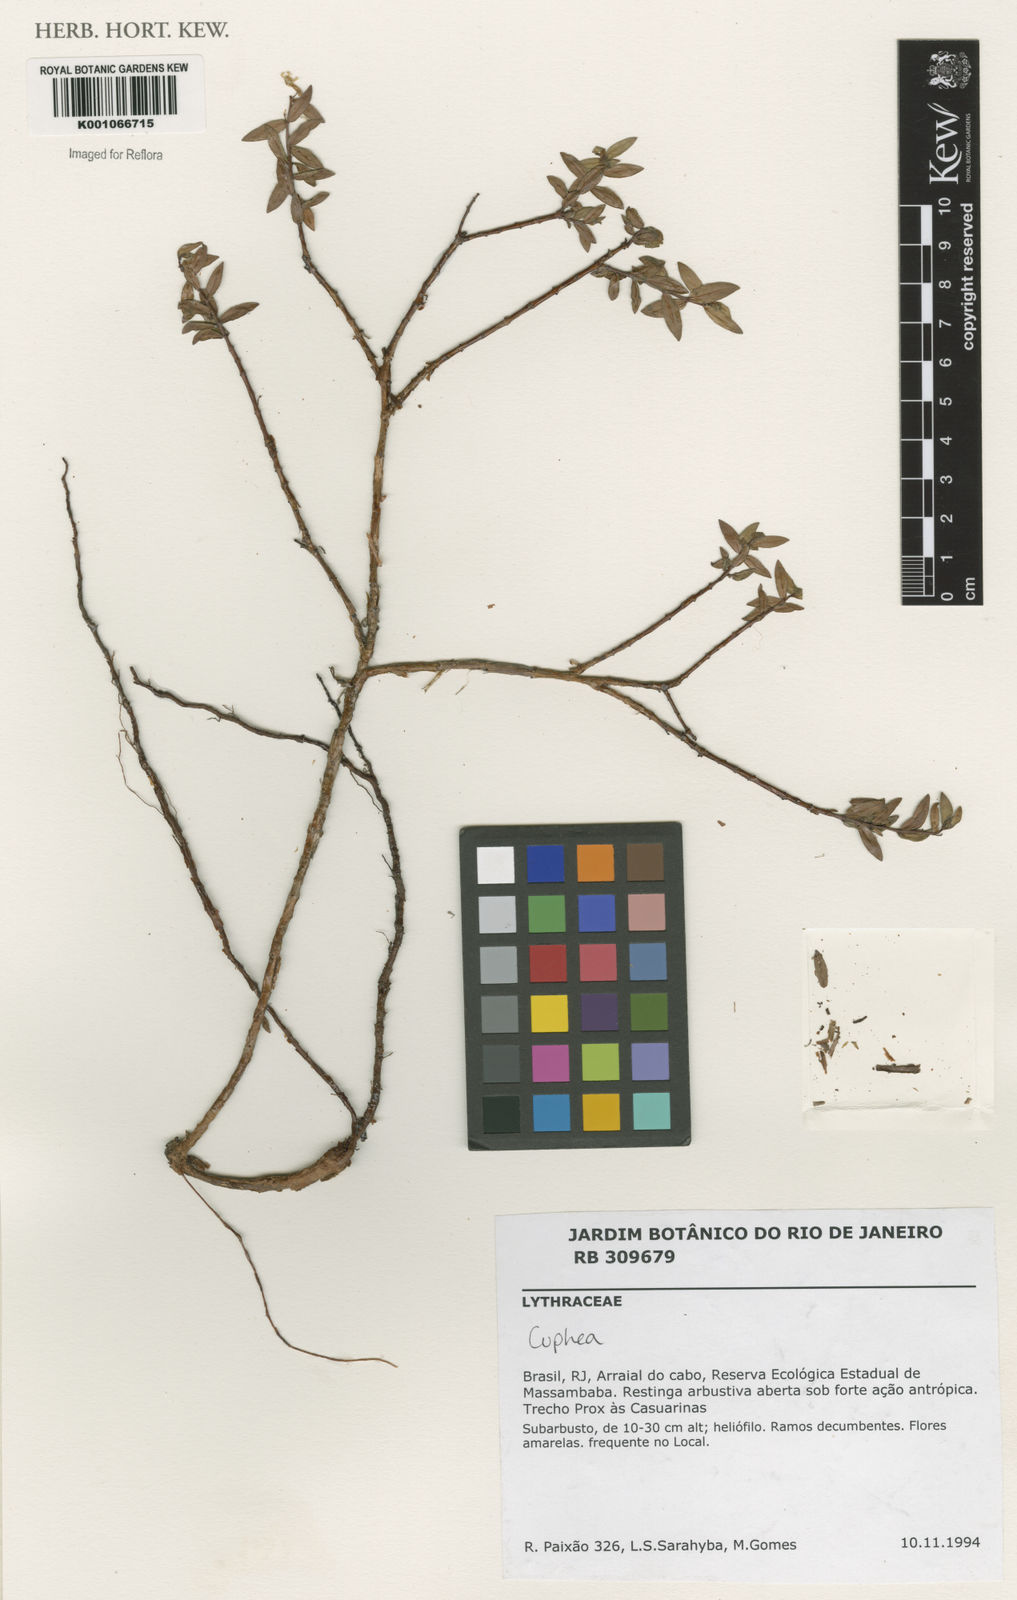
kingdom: Plantae
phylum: Tracheophyta
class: Magnoliopsida
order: Myrtales
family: Lythraceae
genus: Cuphea
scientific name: Cuphea
